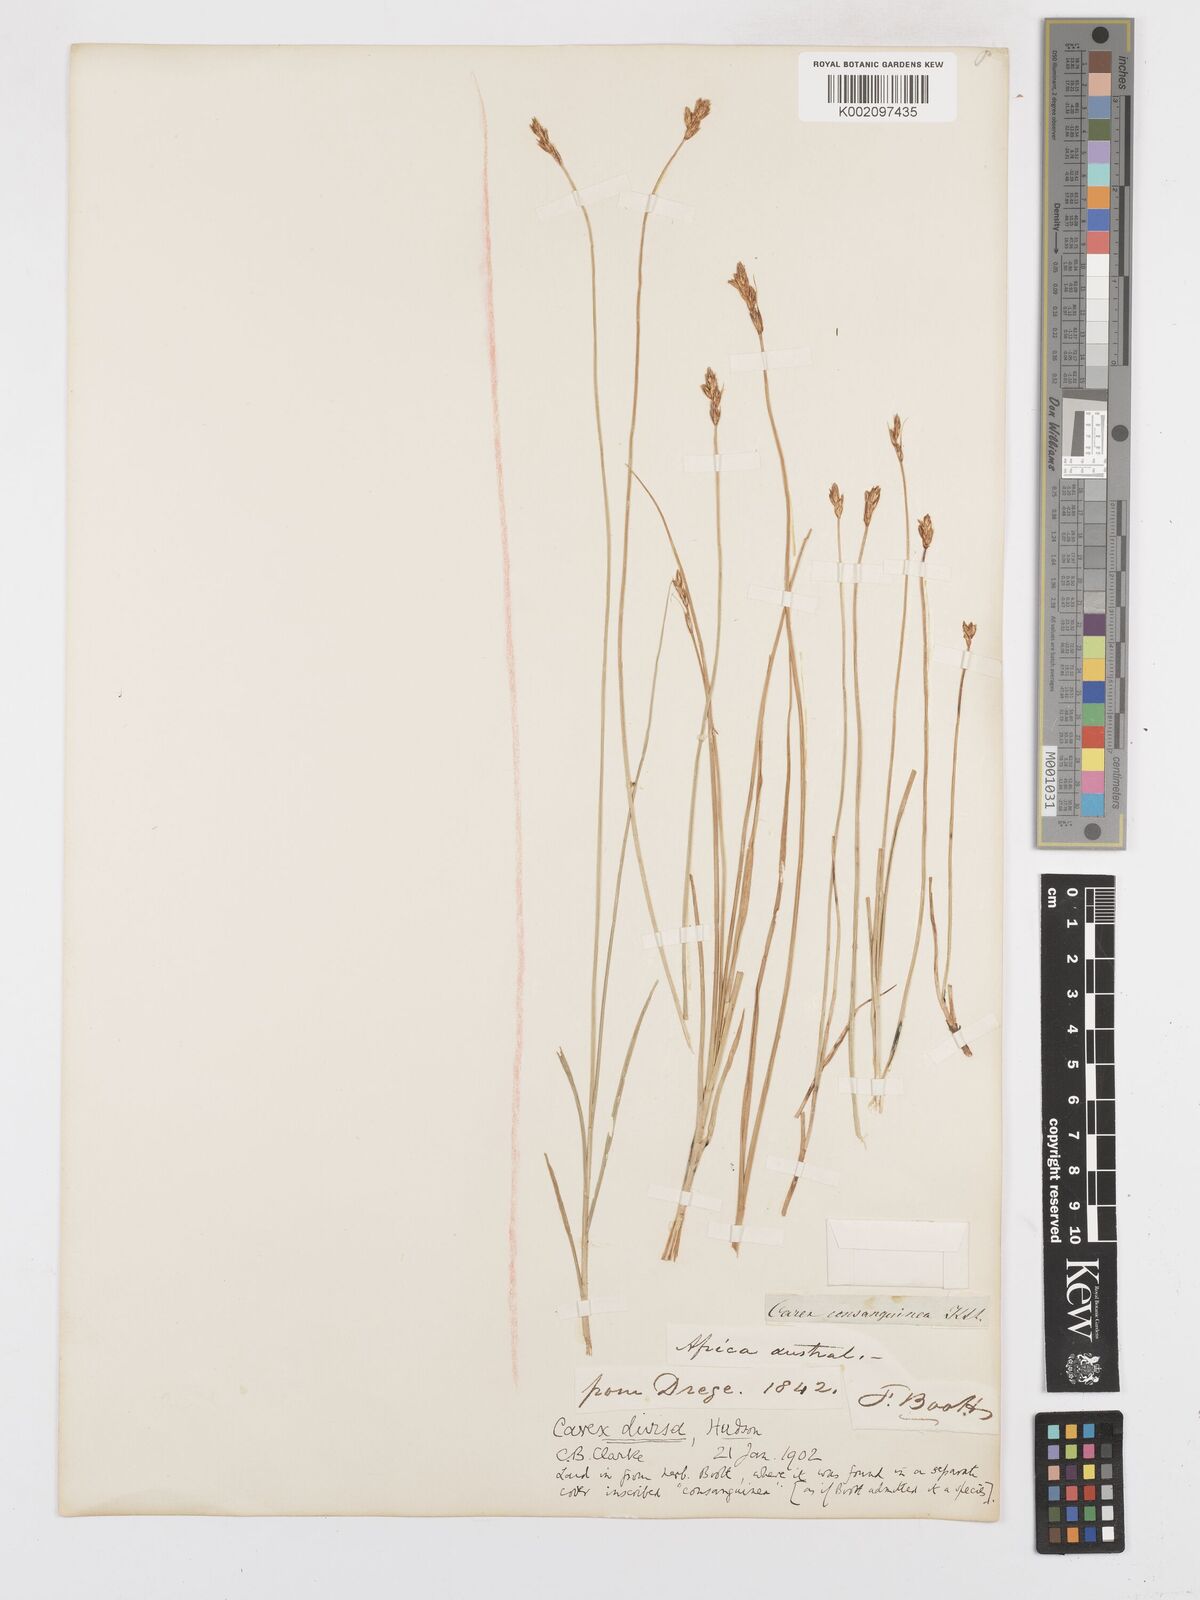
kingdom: Plantae
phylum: Tracheophyta
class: Liliopsida
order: Poales
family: Cyperaceae
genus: Carex
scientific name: Carex divisa
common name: Divided sedge
